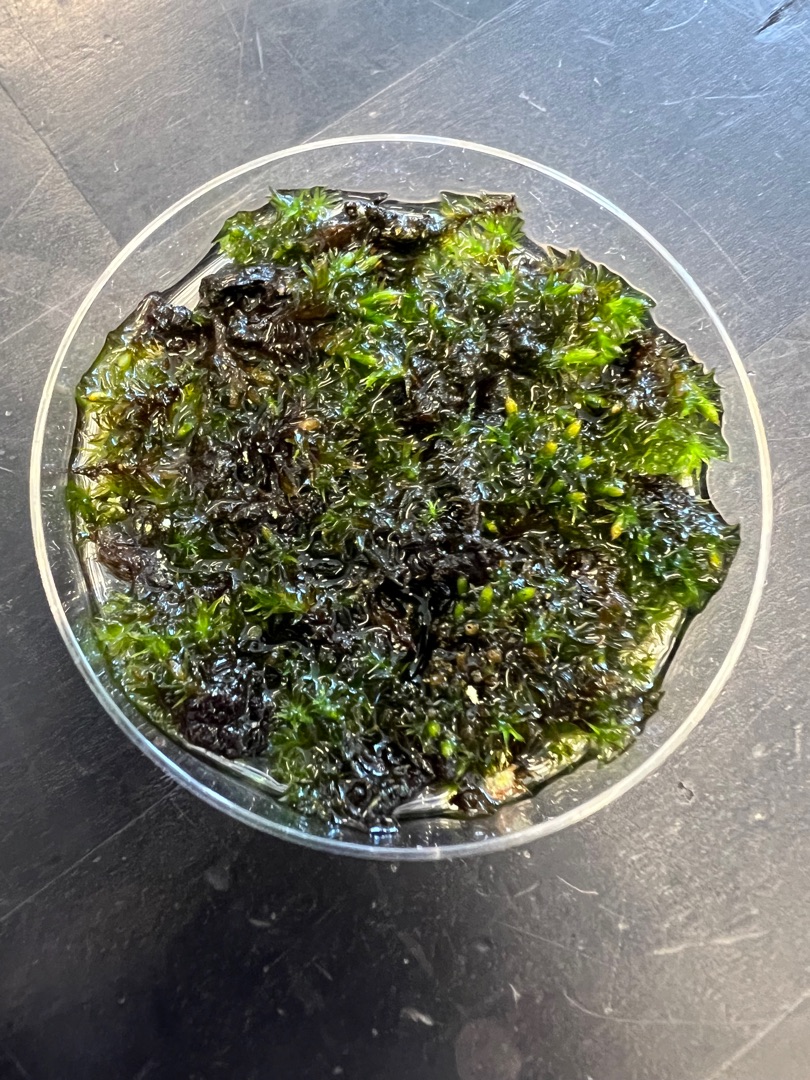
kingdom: Plantae
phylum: Bryophyta
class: Bryopsida
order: Orthotrichales
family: Orthotrichaceae
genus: Lewinskya
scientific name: Lewinskya affinis
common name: Almindelig furehætte
